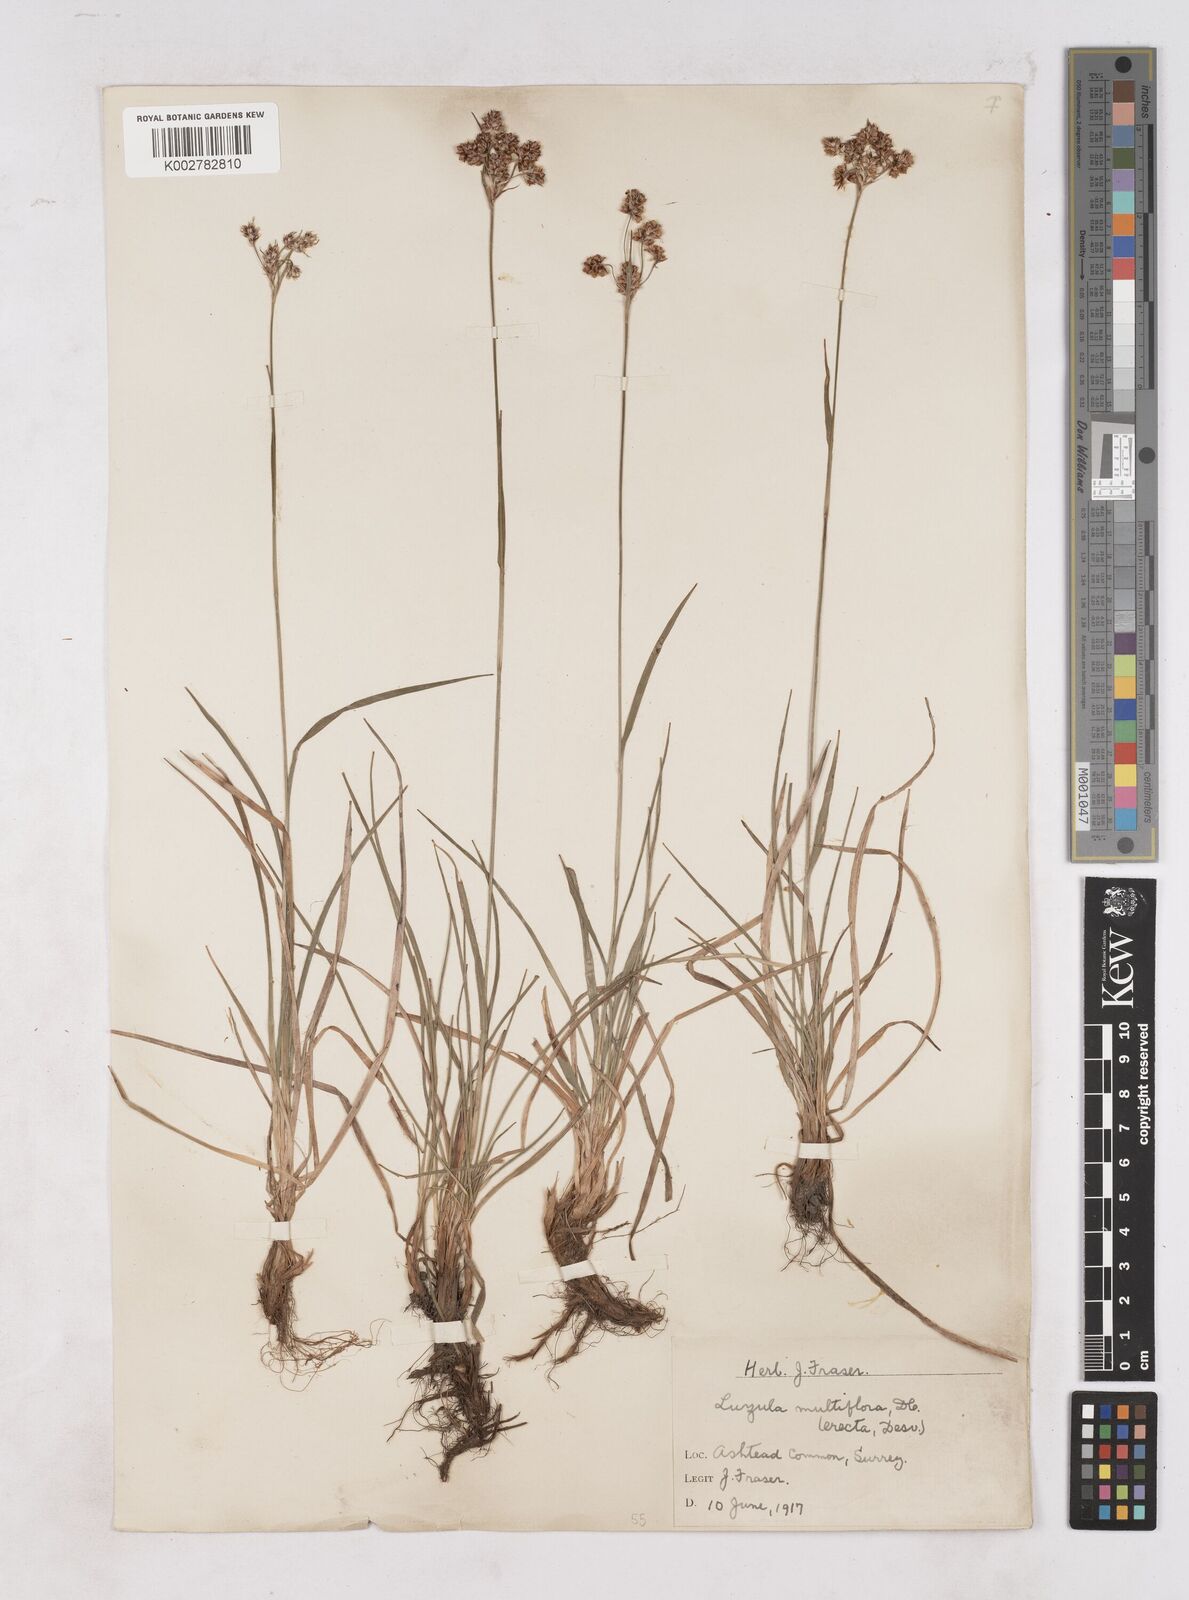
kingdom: Plantae
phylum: Tracheophyta
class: Liliopsida
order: Poales
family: Juncaceae
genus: Luzula
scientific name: Luzula campestris
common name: Field wood-rush
